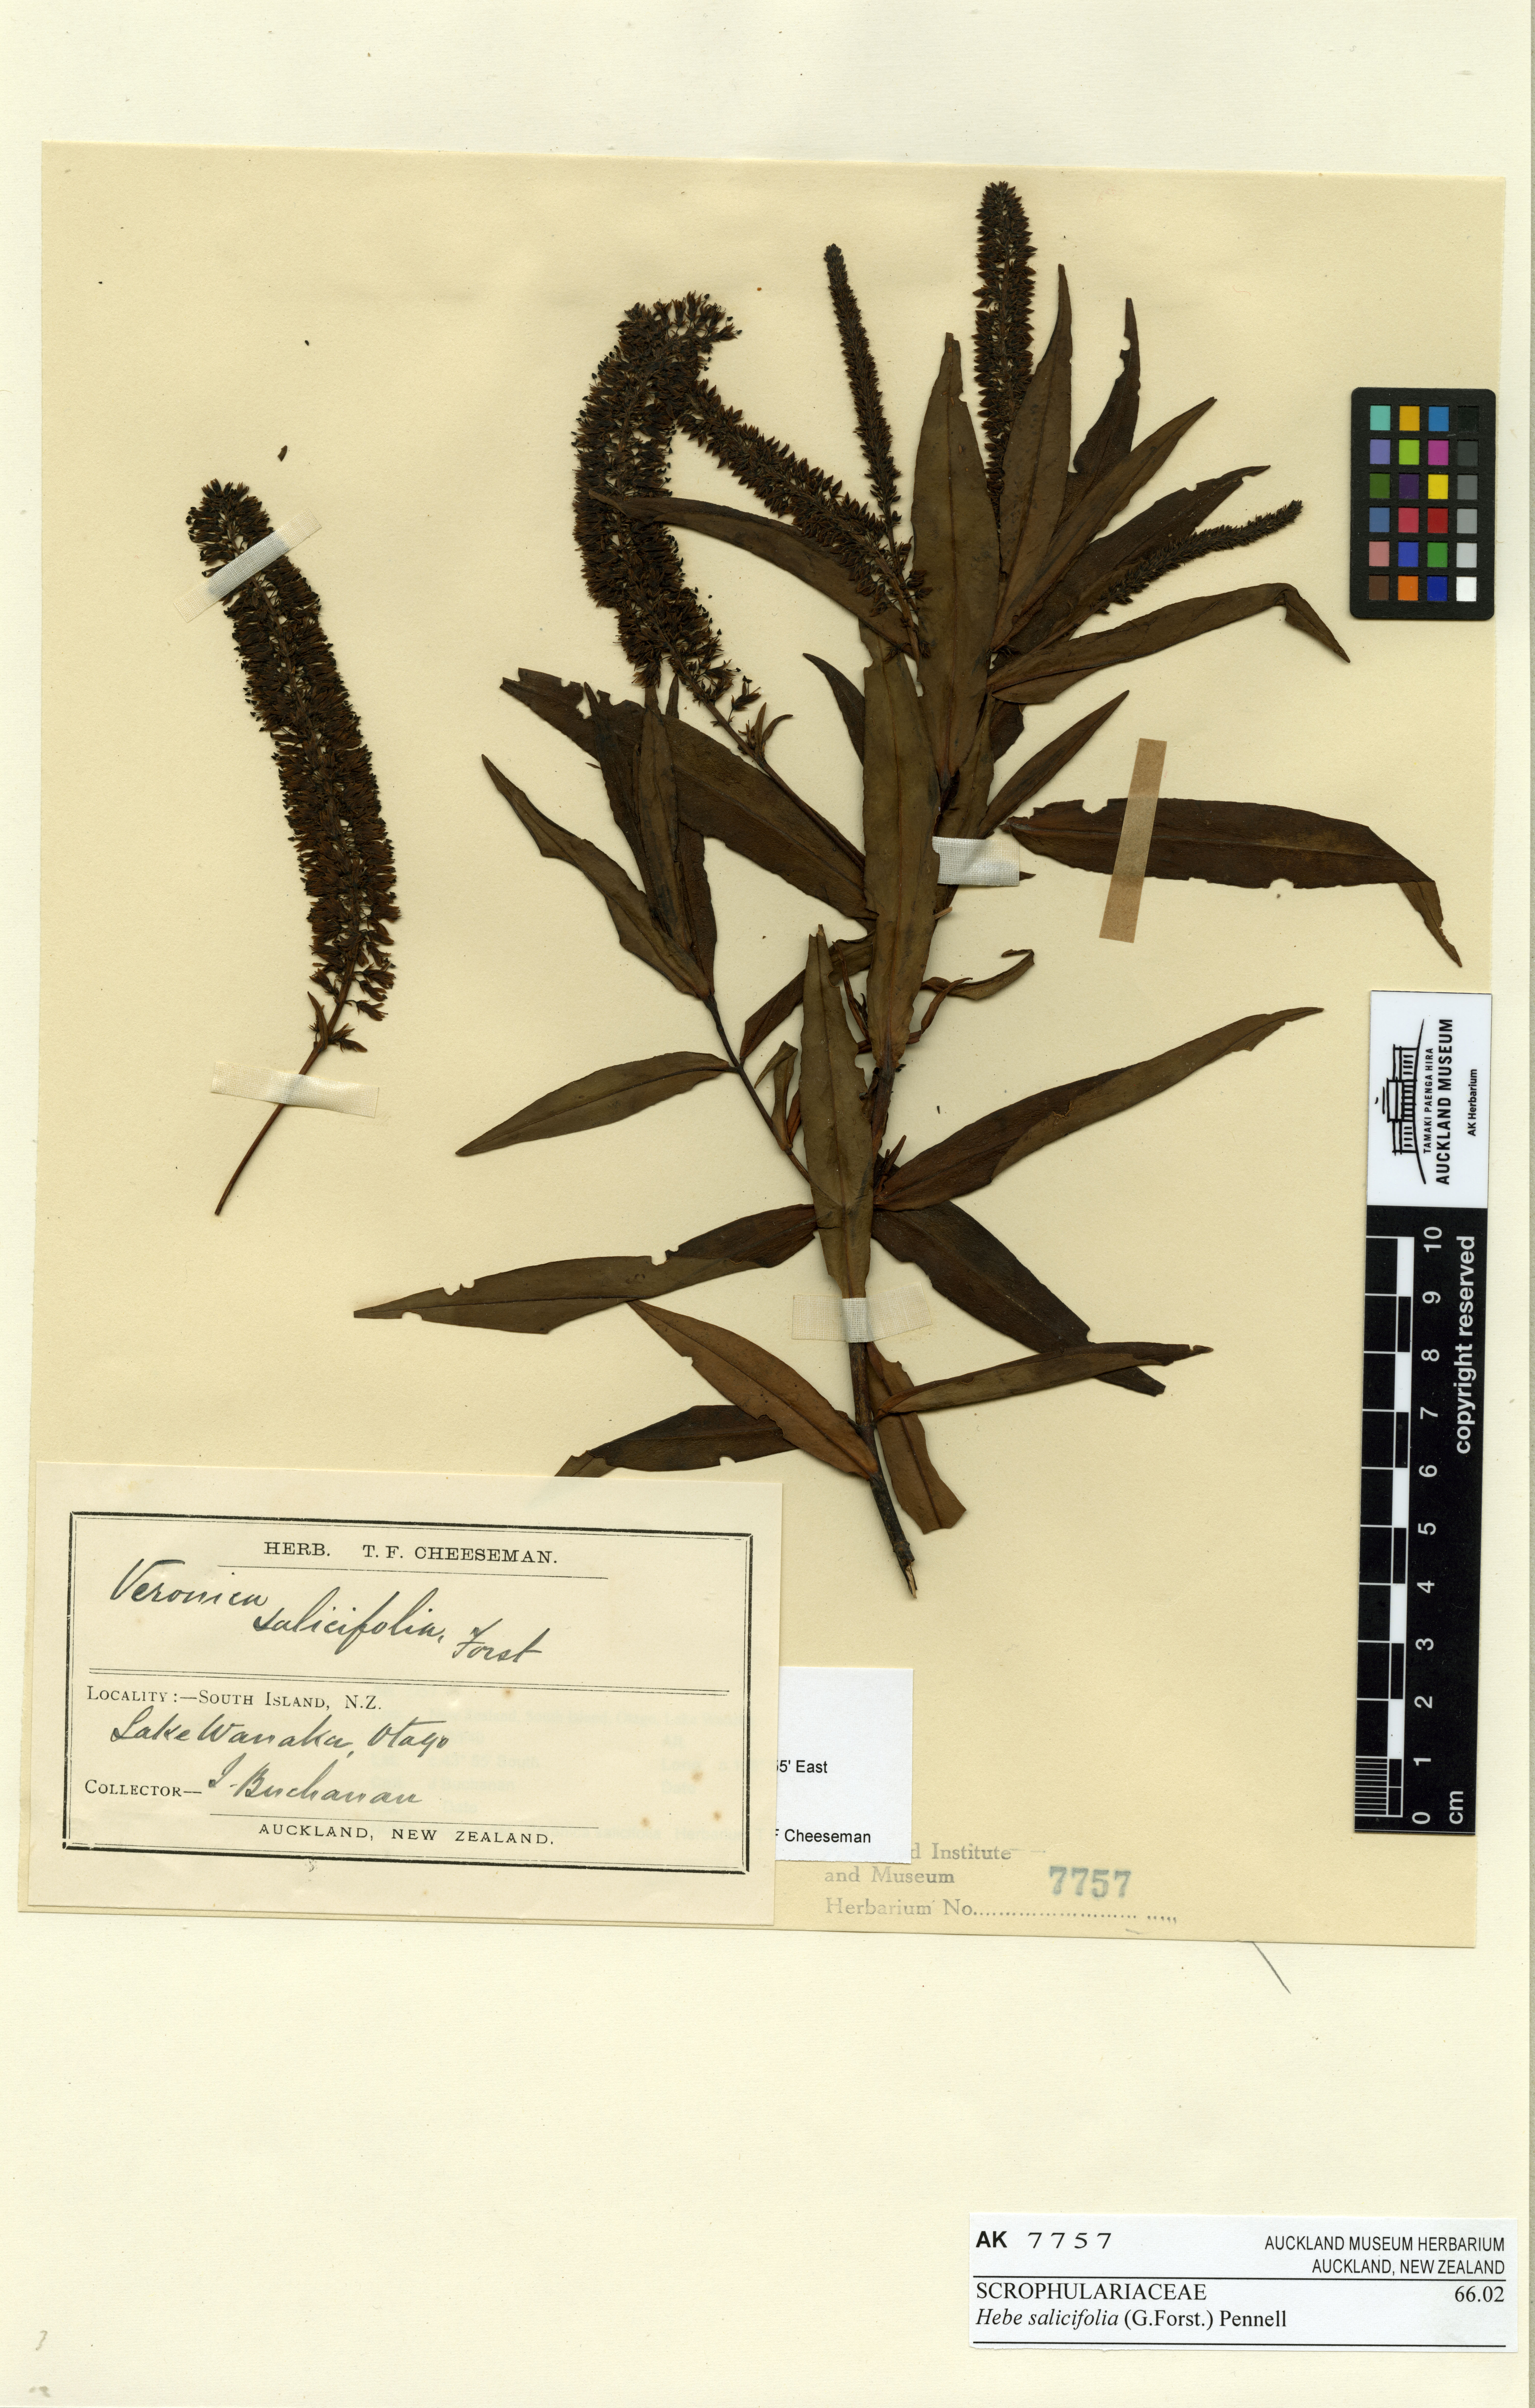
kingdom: Plantae
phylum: Tracheophyta
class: Magnoliopsida
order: Lamiales
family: Plantaginaceae
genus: Veronica
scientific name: Veronica salicifolia
